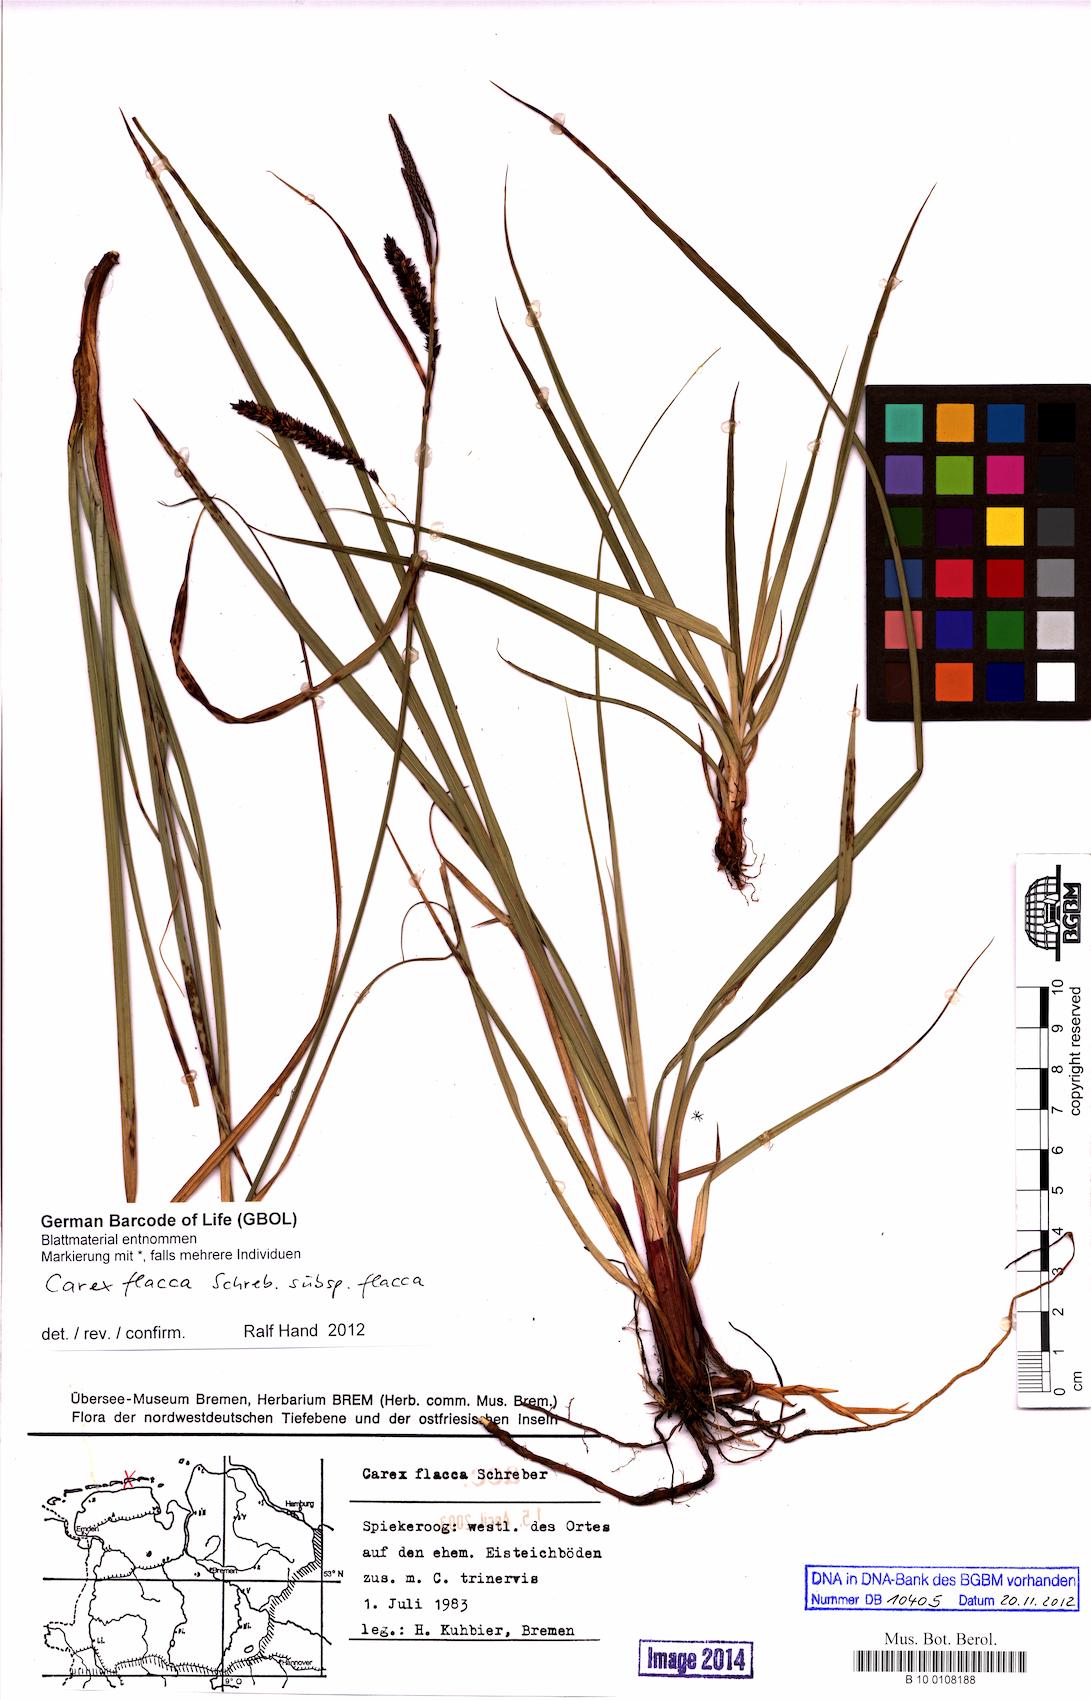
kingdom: Plantae
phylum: Tracheophyta
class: Liliopsida
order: Poales
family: Cyperaceae
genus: Carex
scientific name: Carex flacca
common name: Glaucous sedge
